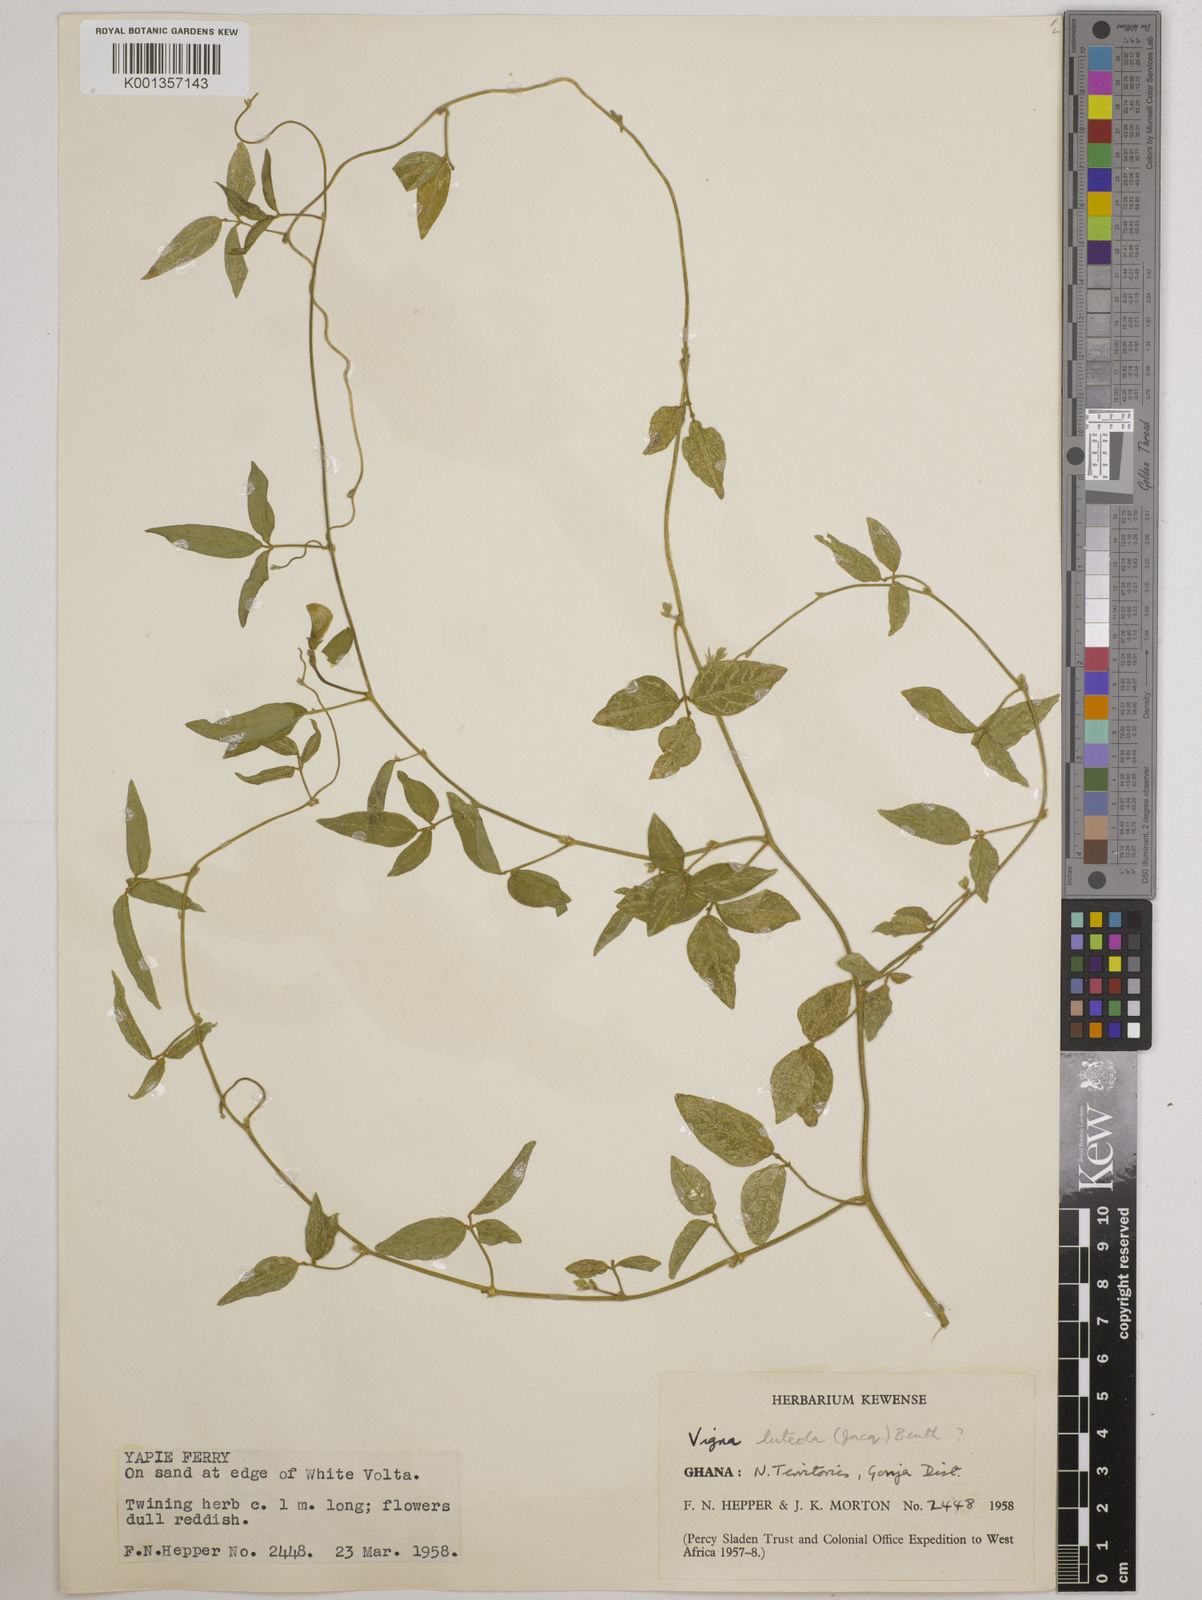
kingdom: Plantae
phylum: Tracheophyta
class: Magnoliopsida
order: Fabales
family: Fabaceae
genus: Vigna
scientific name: Vigna luteola
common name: Hairypod cowpea
